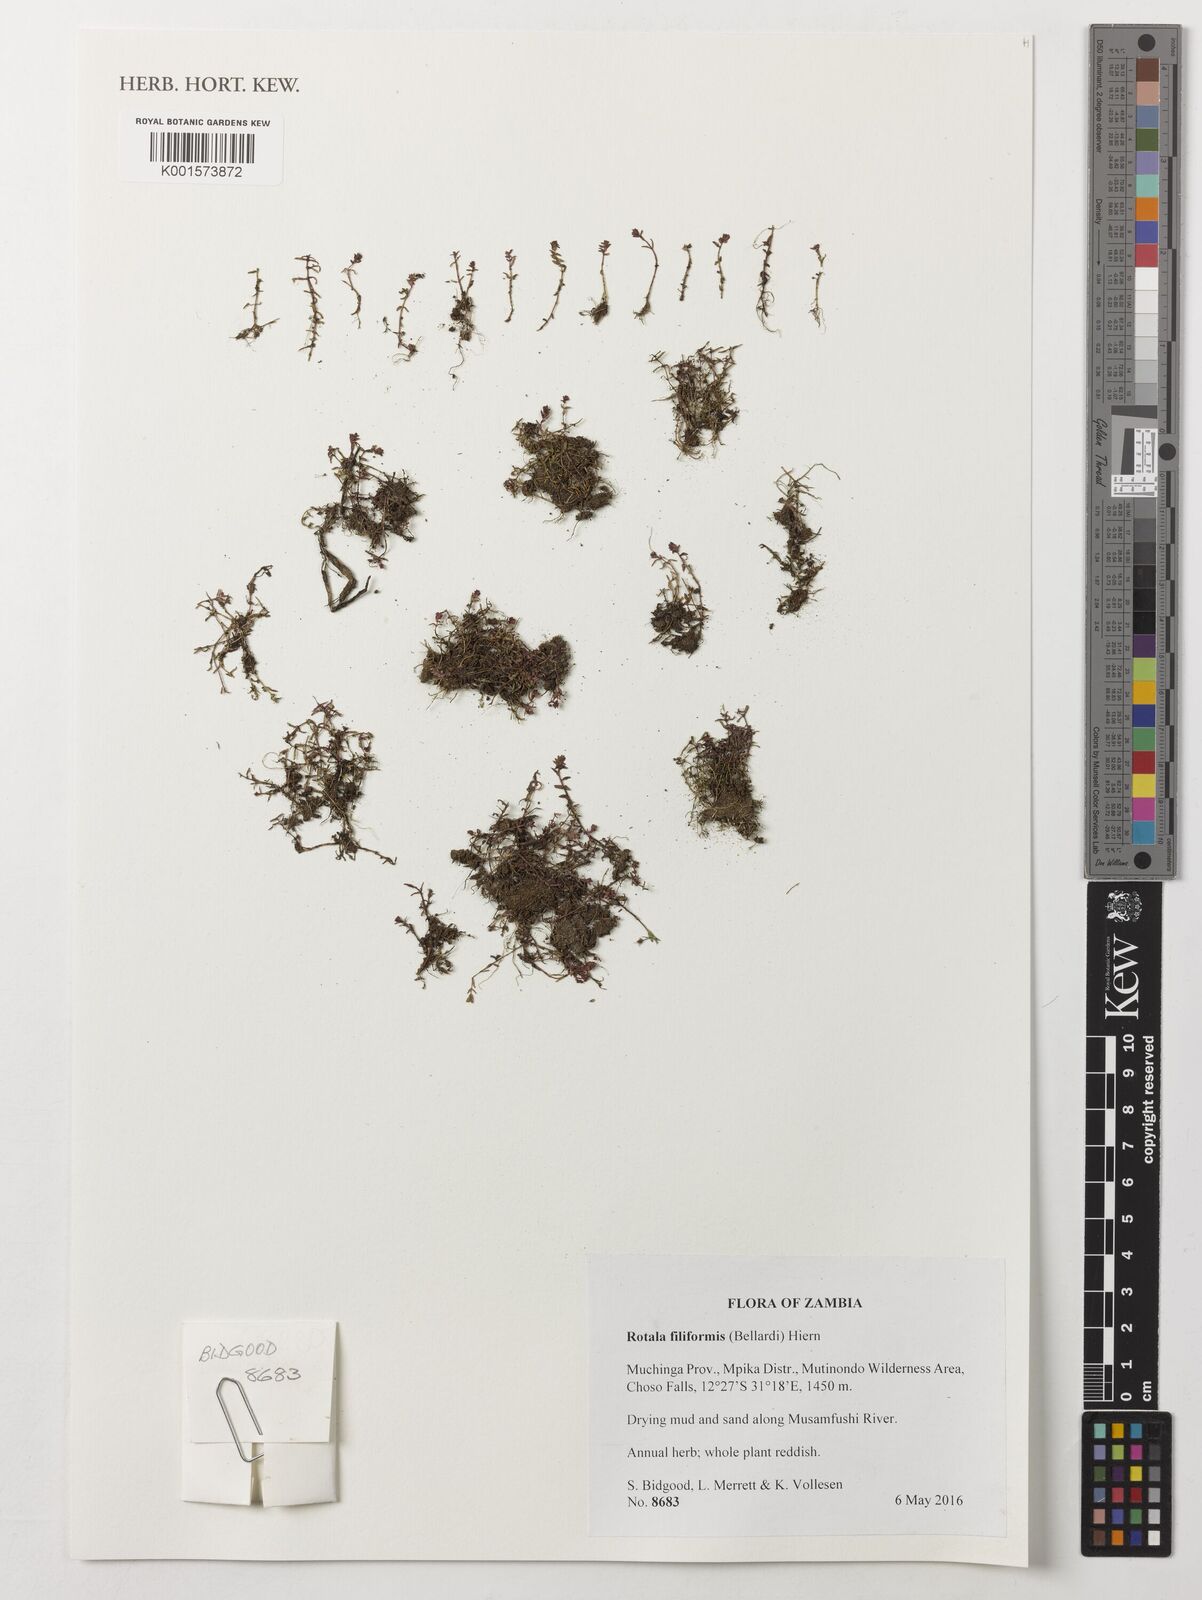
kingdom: Plantae
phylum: Tracheophyta
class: Magnoliopsida
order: Myrtales
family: Lythraceae
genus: Rotala
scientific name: Rotala filiformis
